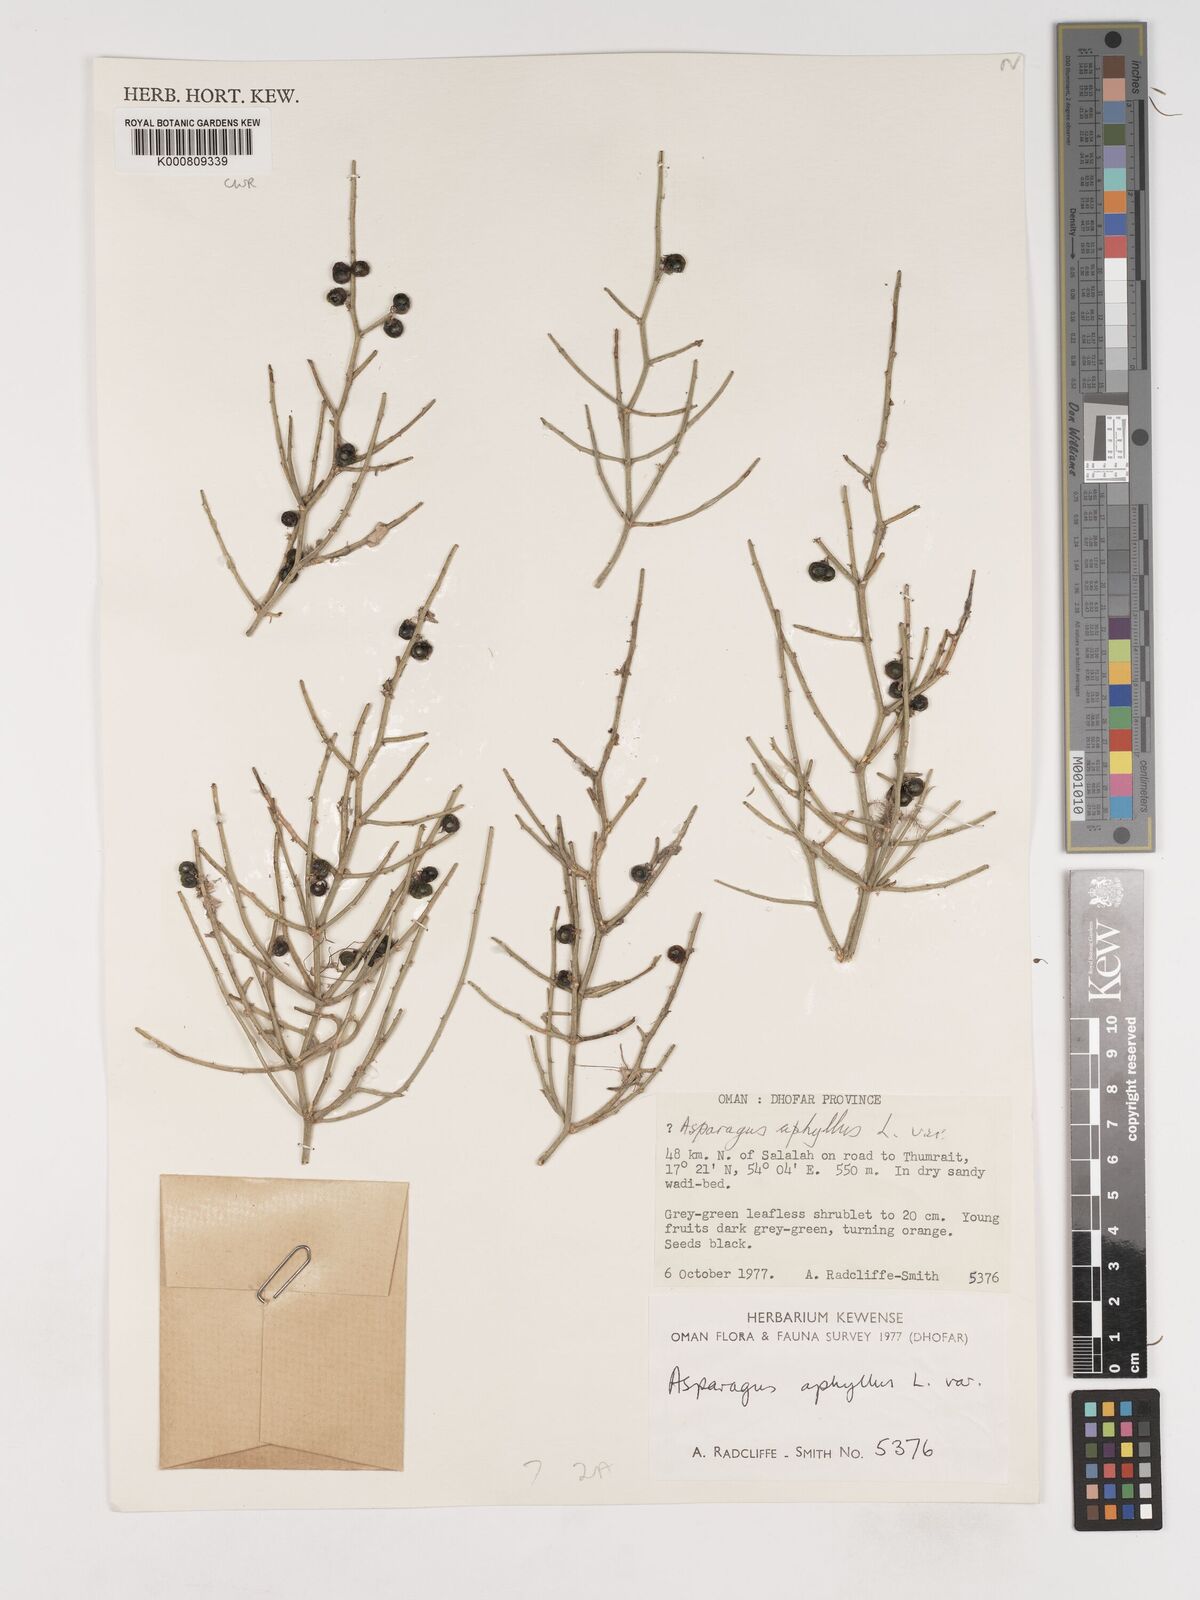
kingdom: Plantae
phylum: Tracheophyta
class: Liliopsida
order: Asparagales
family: Asparagaceae
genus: Asparagus
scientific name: Asparagus aphyllus
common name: Mediterranean asparagus
